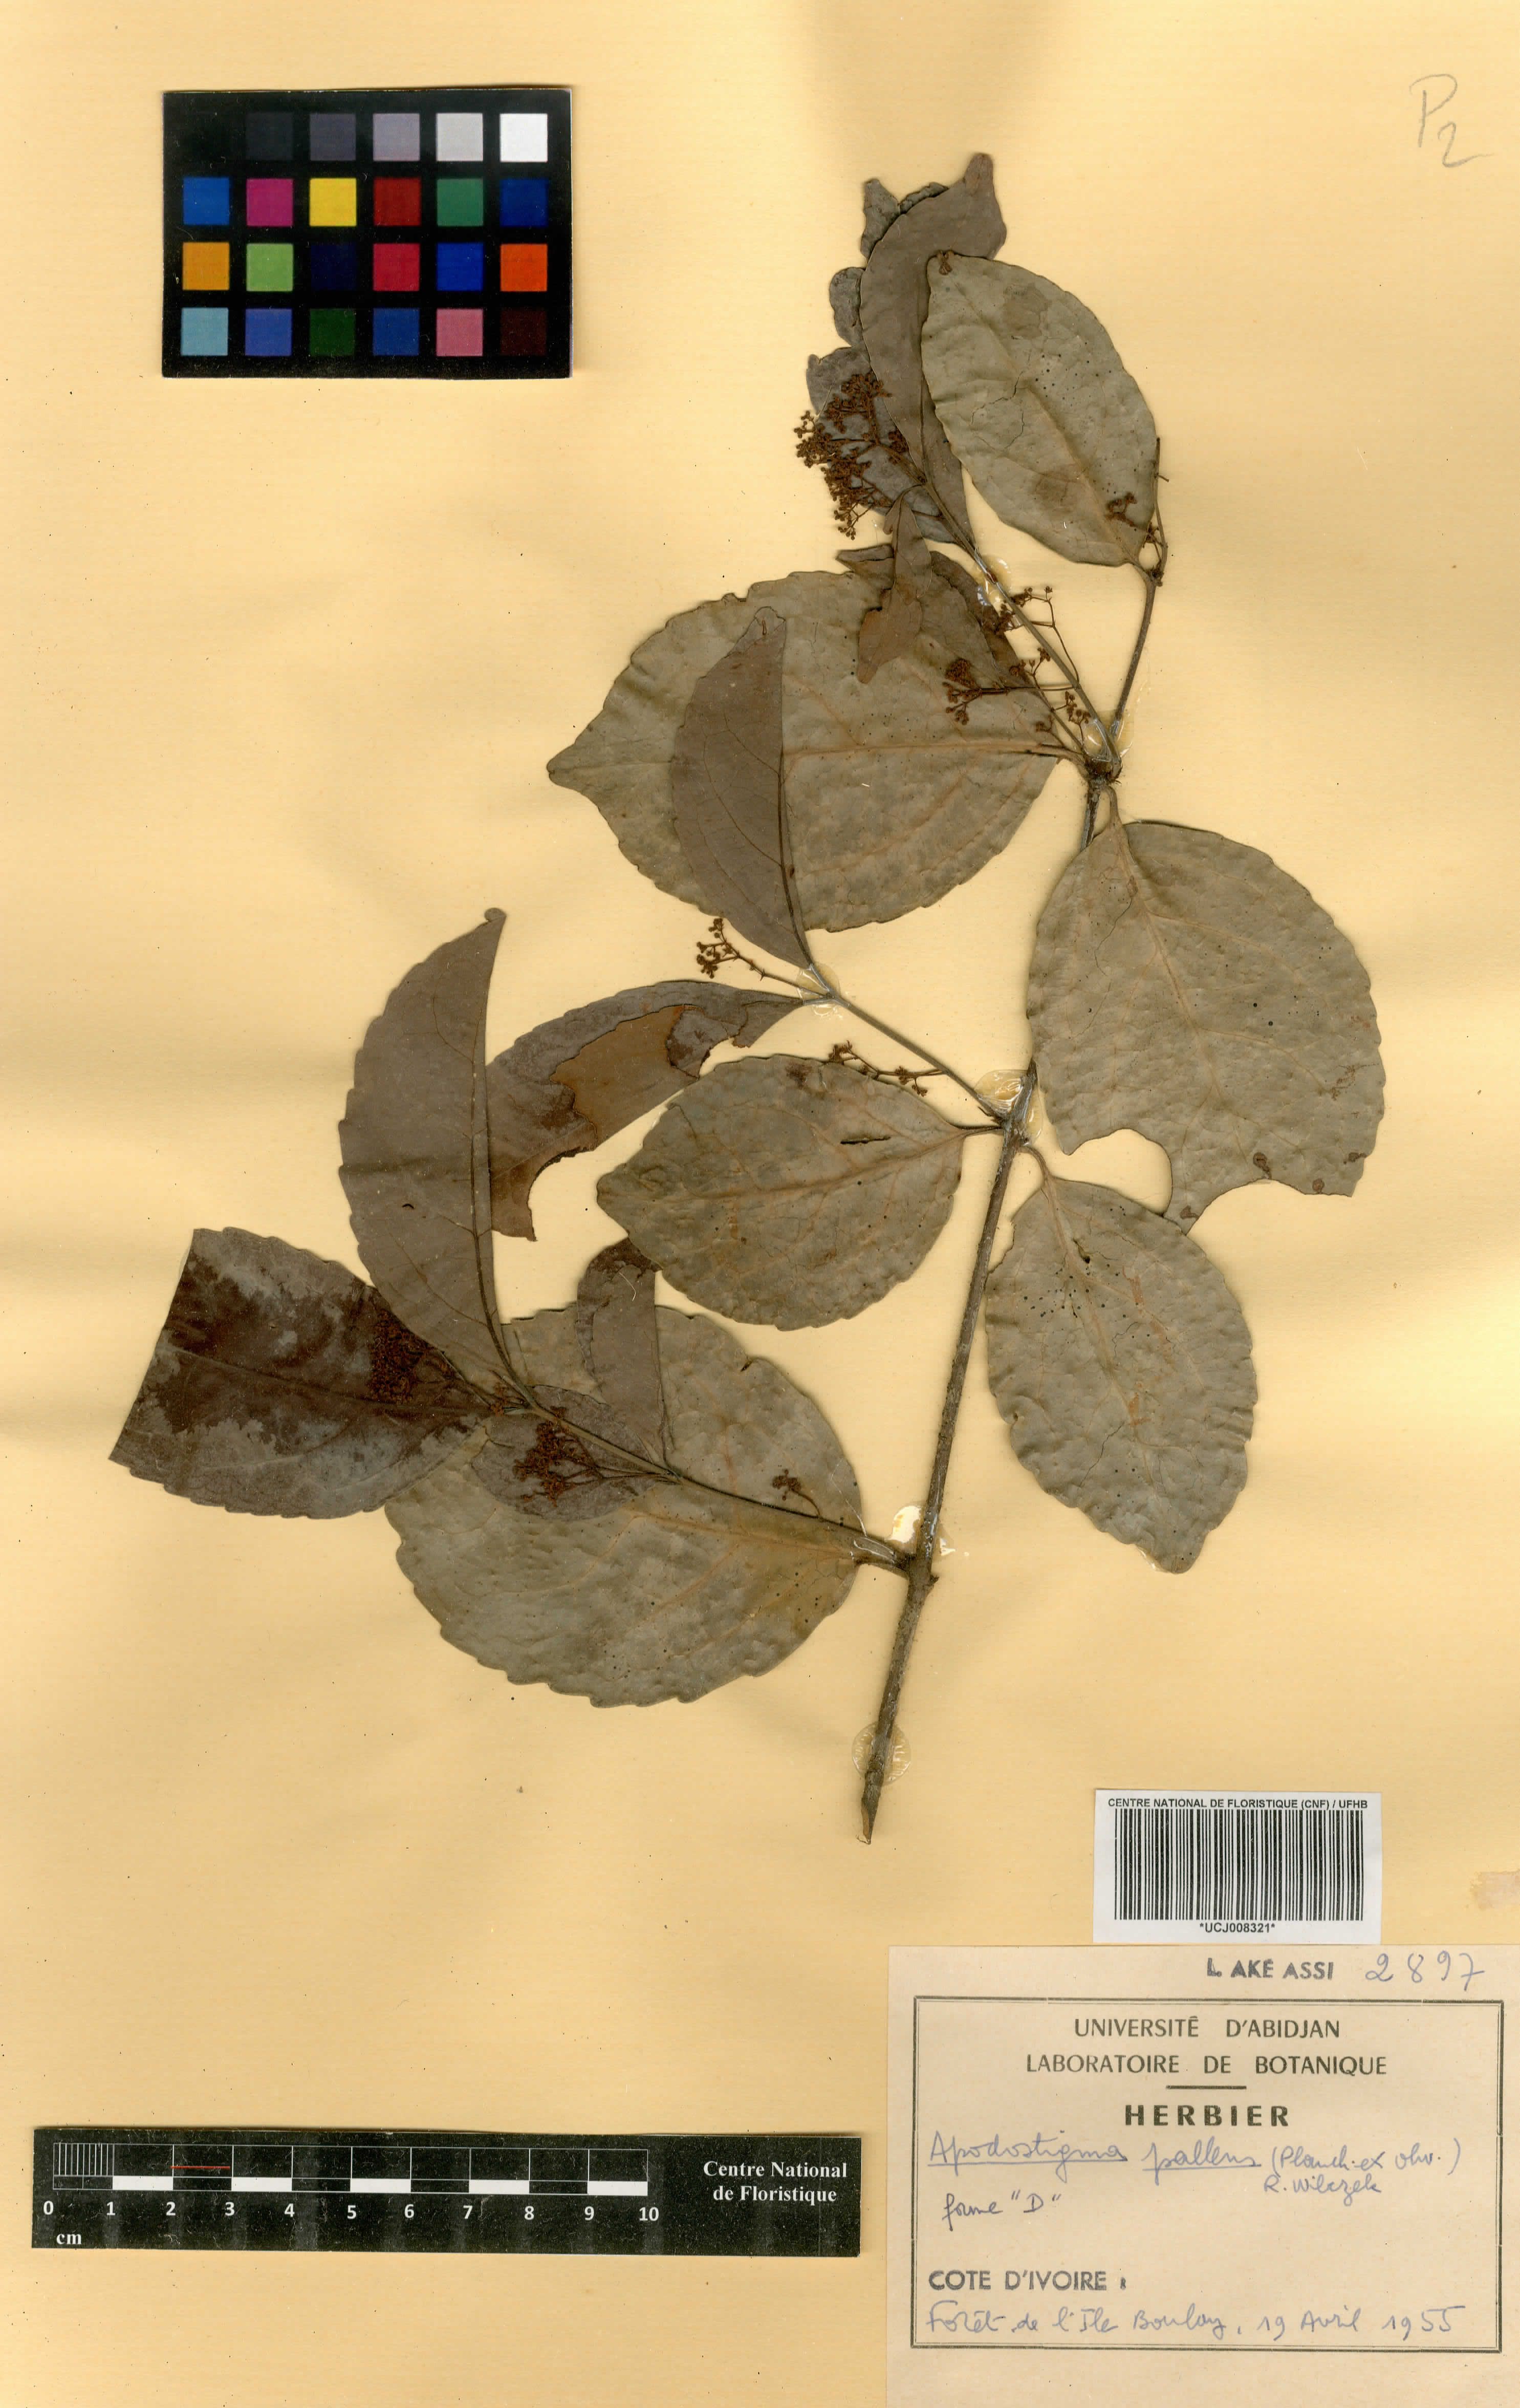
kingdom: Plantae
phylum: Tracheophyta
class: Magnoliopsida
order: Celastrales
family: Celastraceae
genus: Apodostigma
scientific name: Apodostigma pallens
